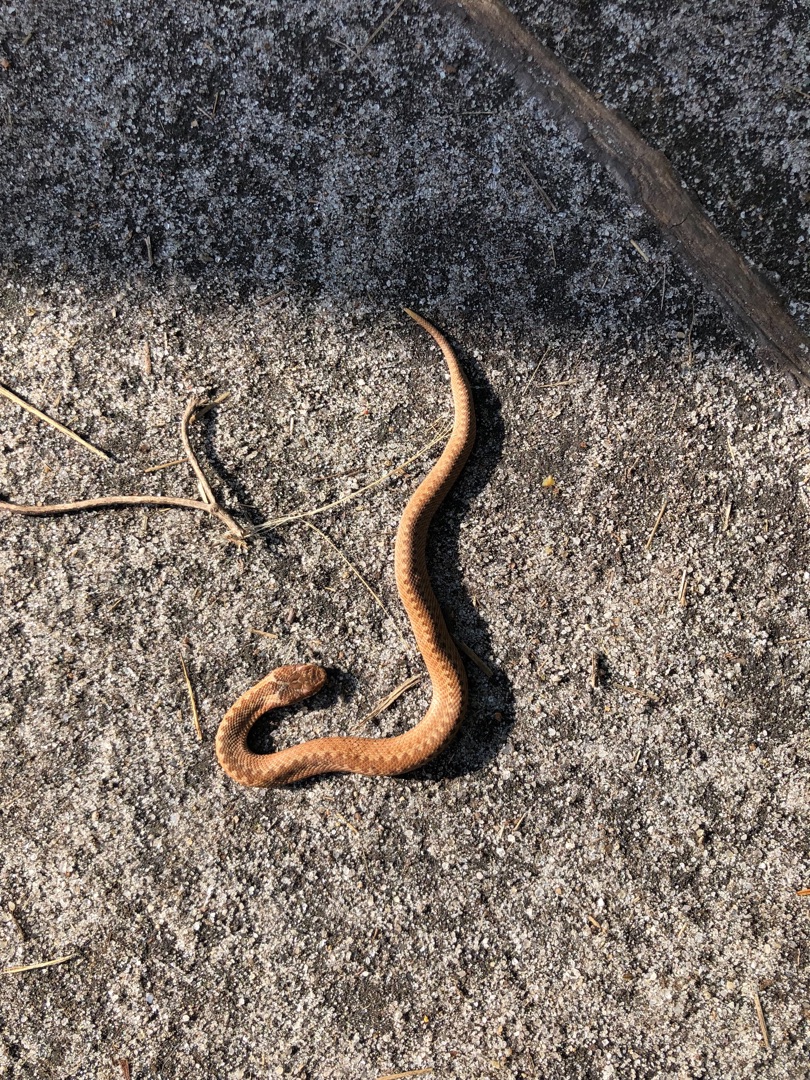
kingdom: Animalia
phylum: Chordata
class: Squamata
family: Viperidae
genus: Vipera
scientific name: Vipera berus
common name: Hugorm
